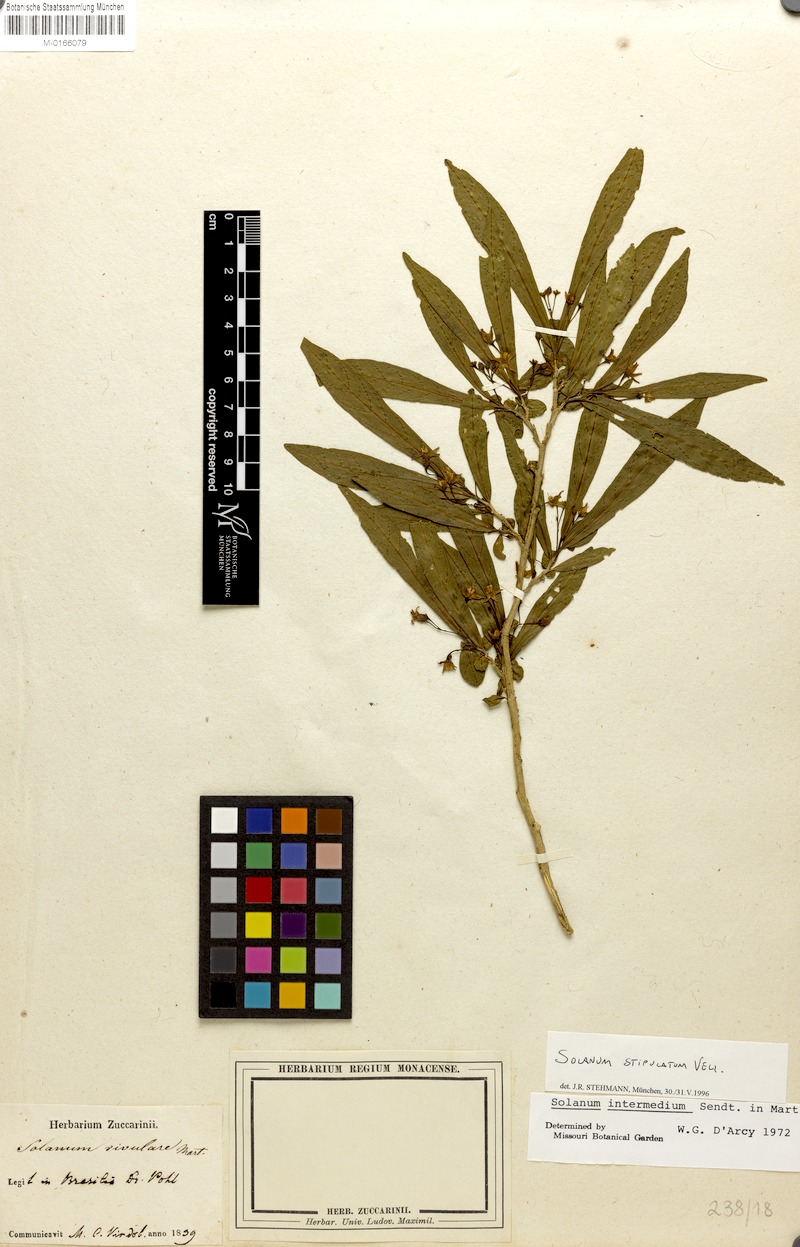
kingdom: Plantae
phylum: Tracheophyta
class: Magnoliopsida
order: Solanales
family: Solanaceae
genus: Solanum
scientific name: Solanum stipulatum
